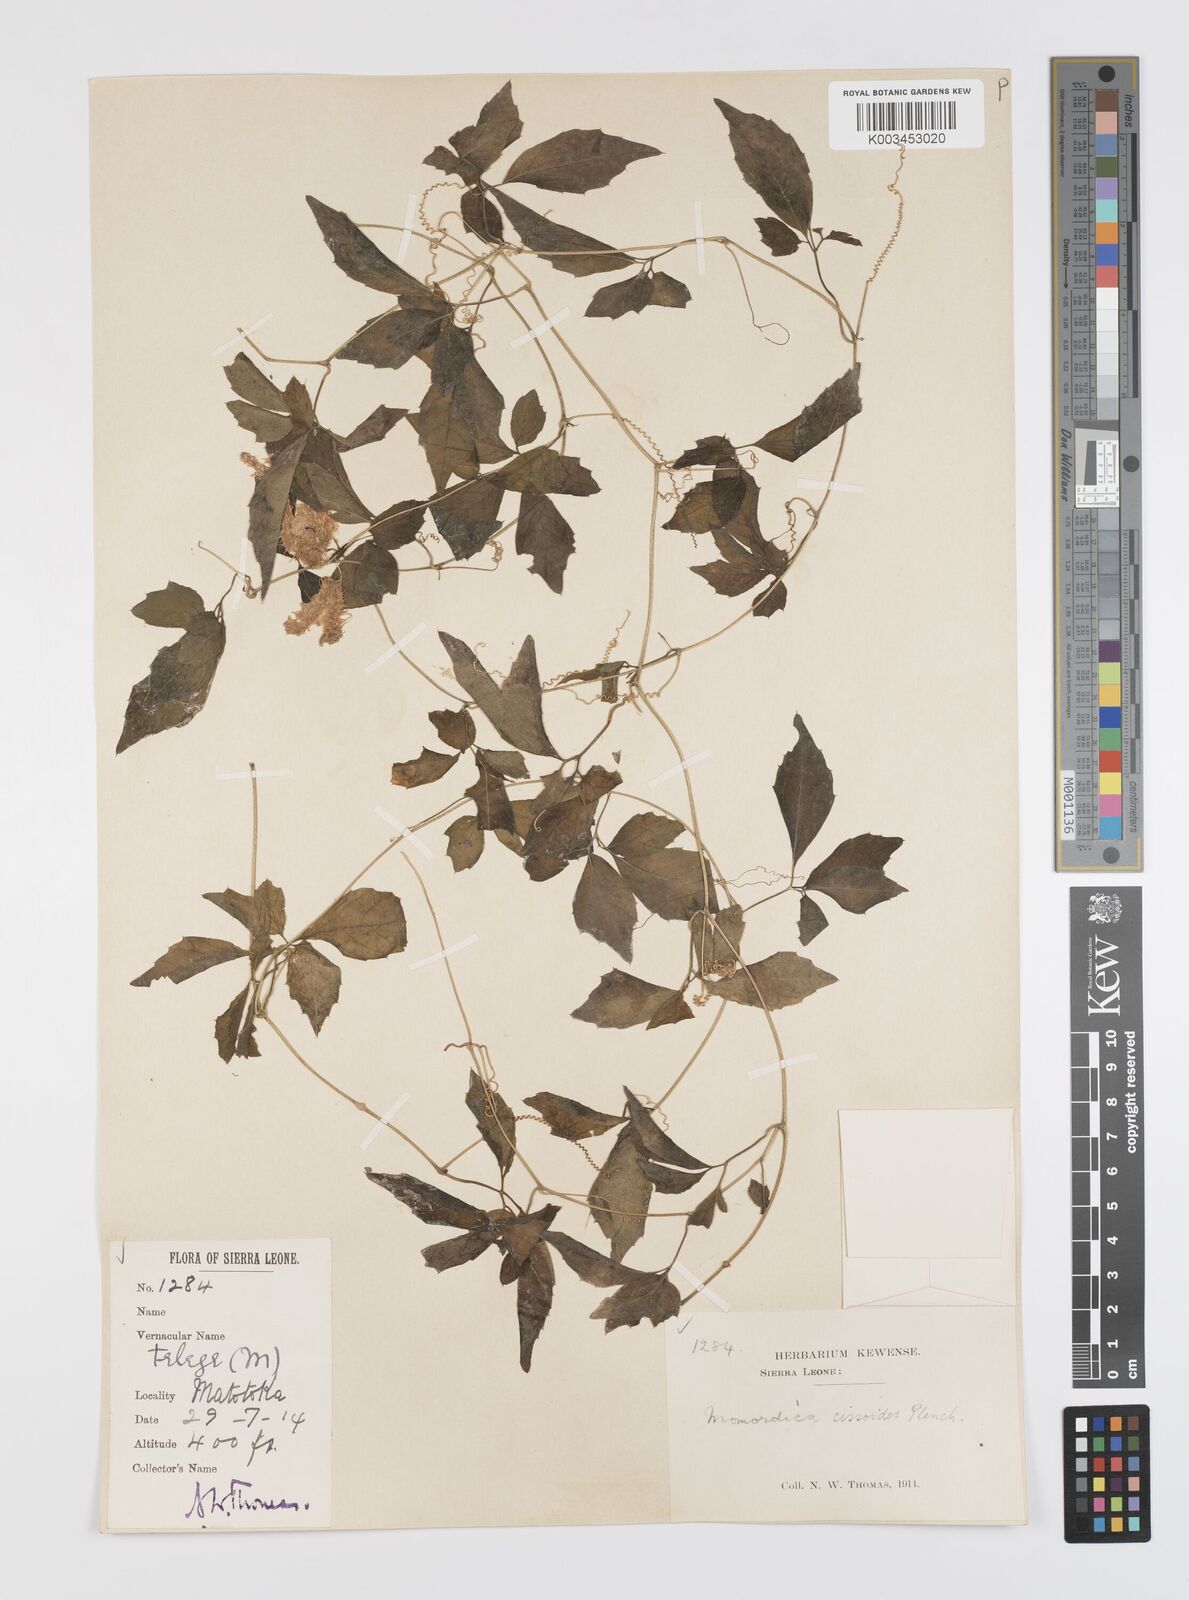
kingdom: Plantae
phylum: Tracheophyta
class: Magnoliopsida
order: Cucurbitales
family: Cucurbitaceae
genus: Momordica
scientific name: Momordica cissoides
